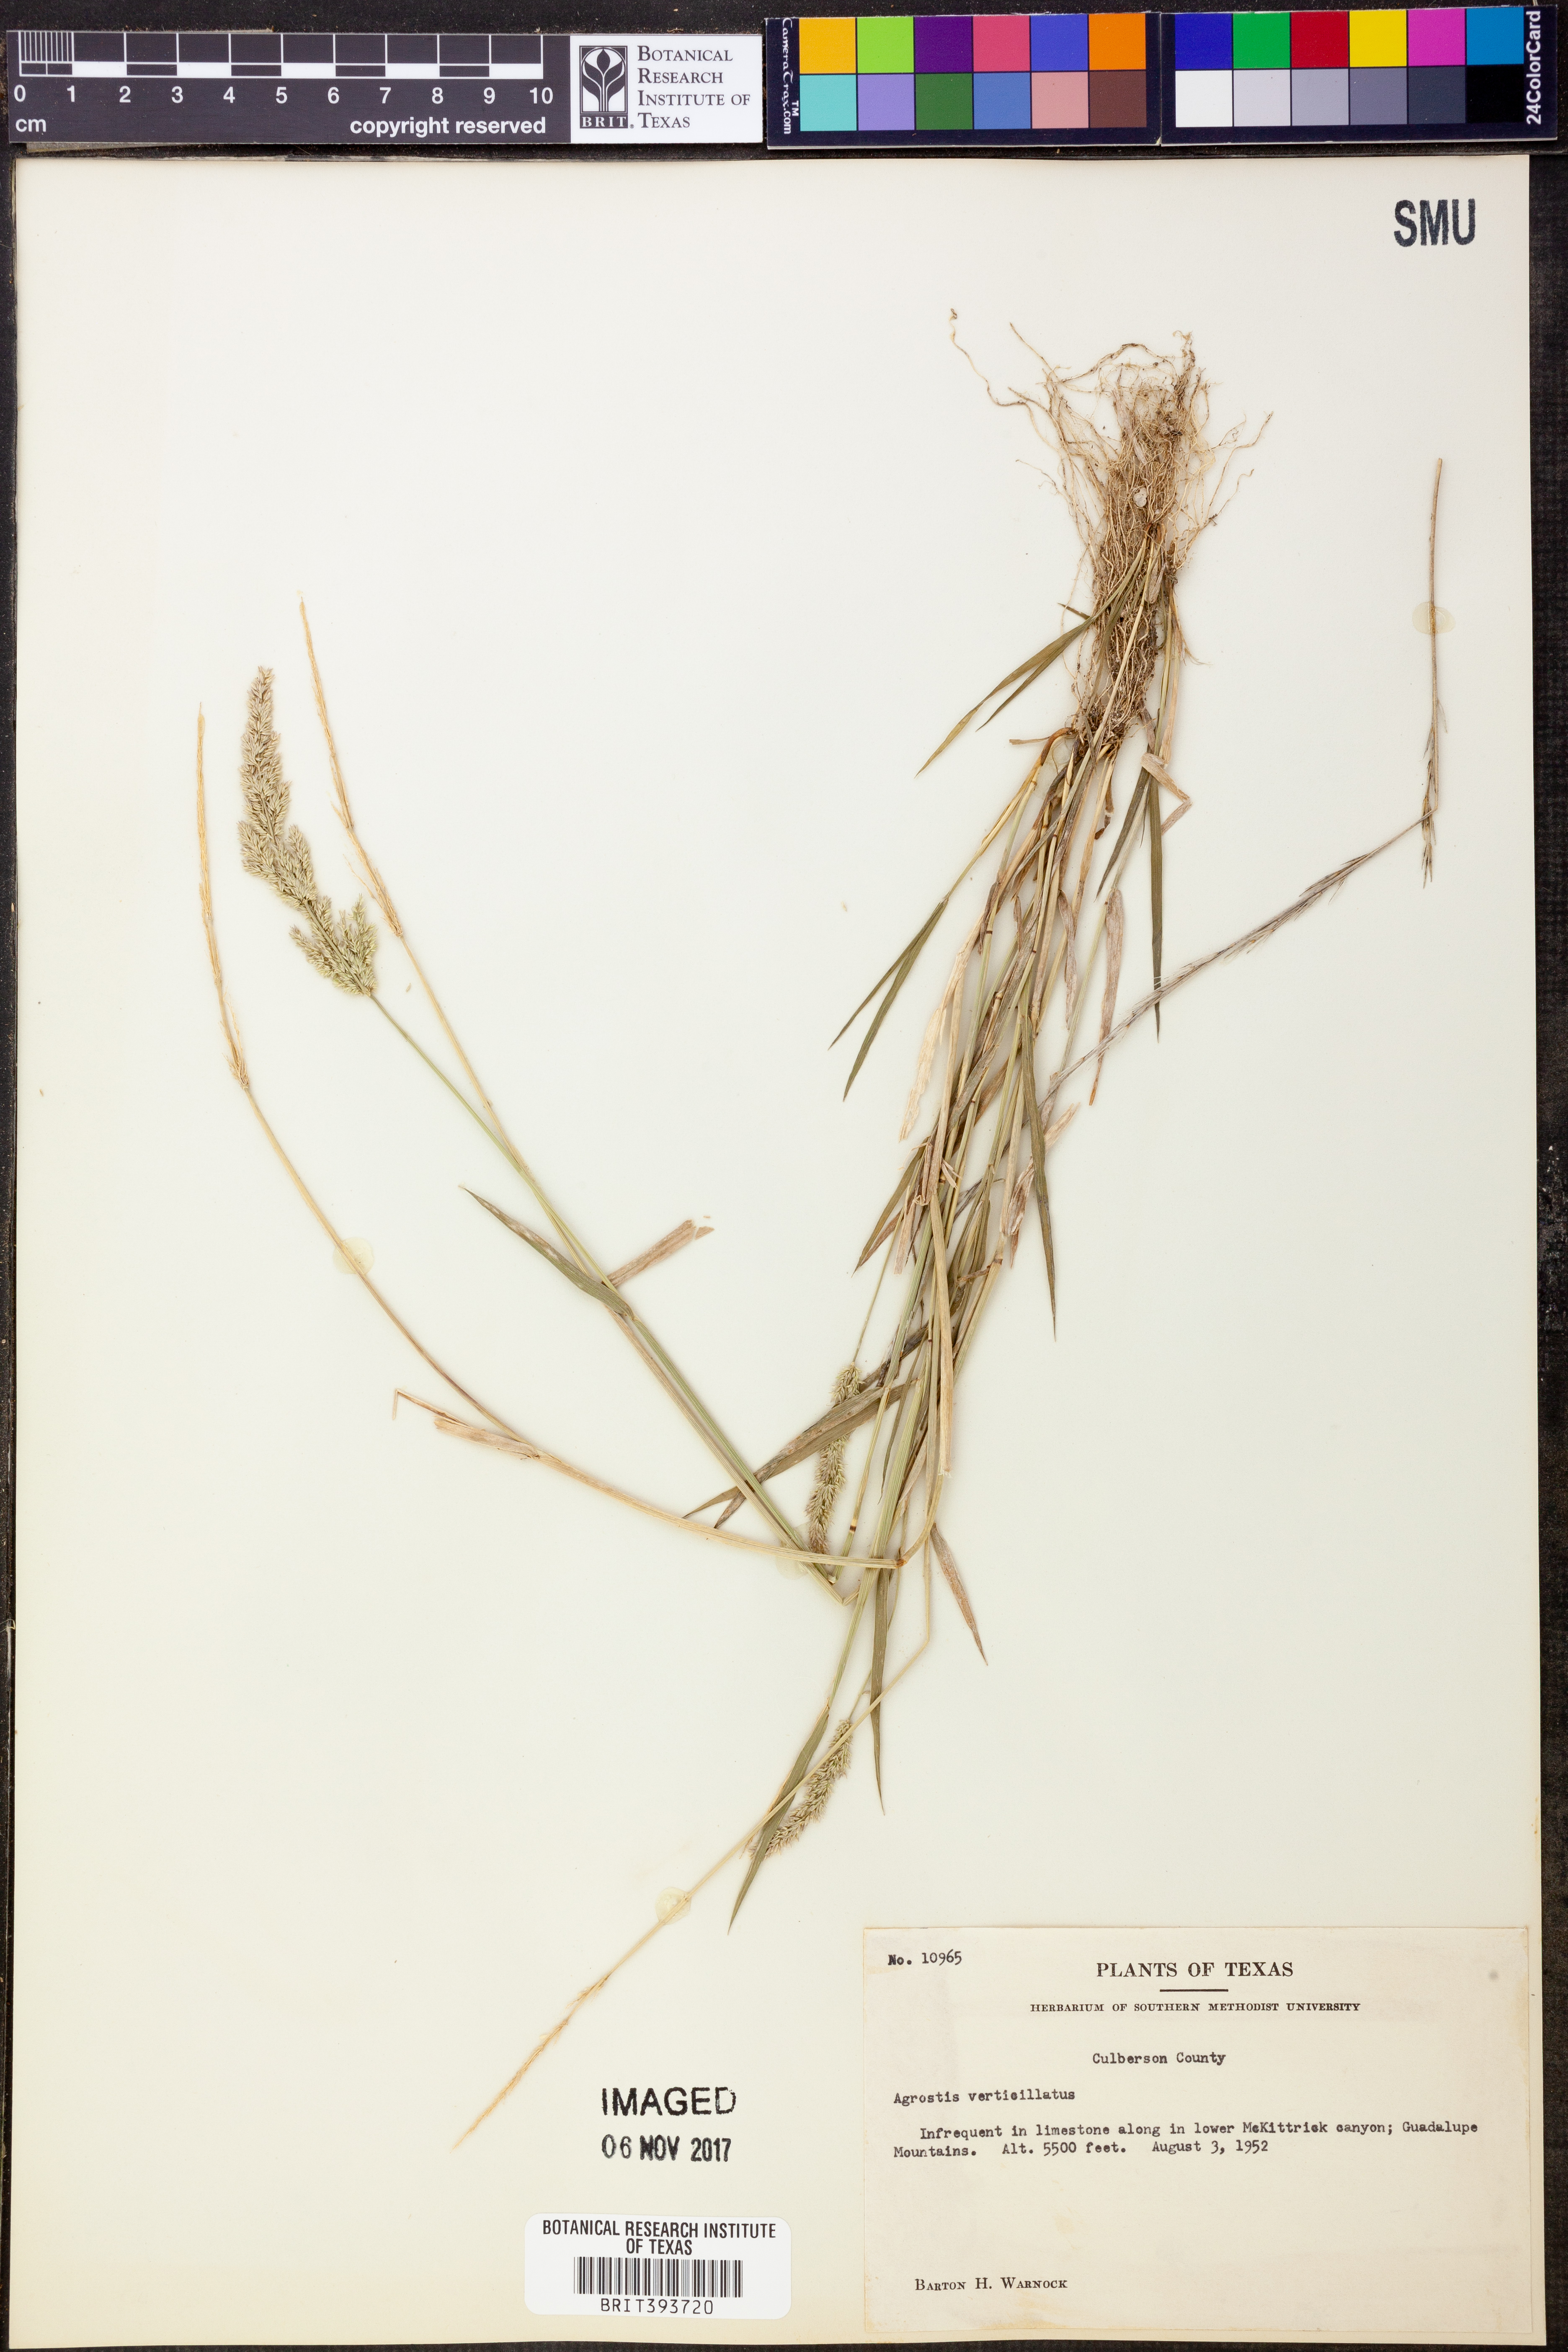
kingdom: Plantae
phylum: Tracheophyta
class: Liliopsida
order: Poales
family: Poaceae
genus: Polypogon
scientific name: Polypogon viridis
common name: Water bent
